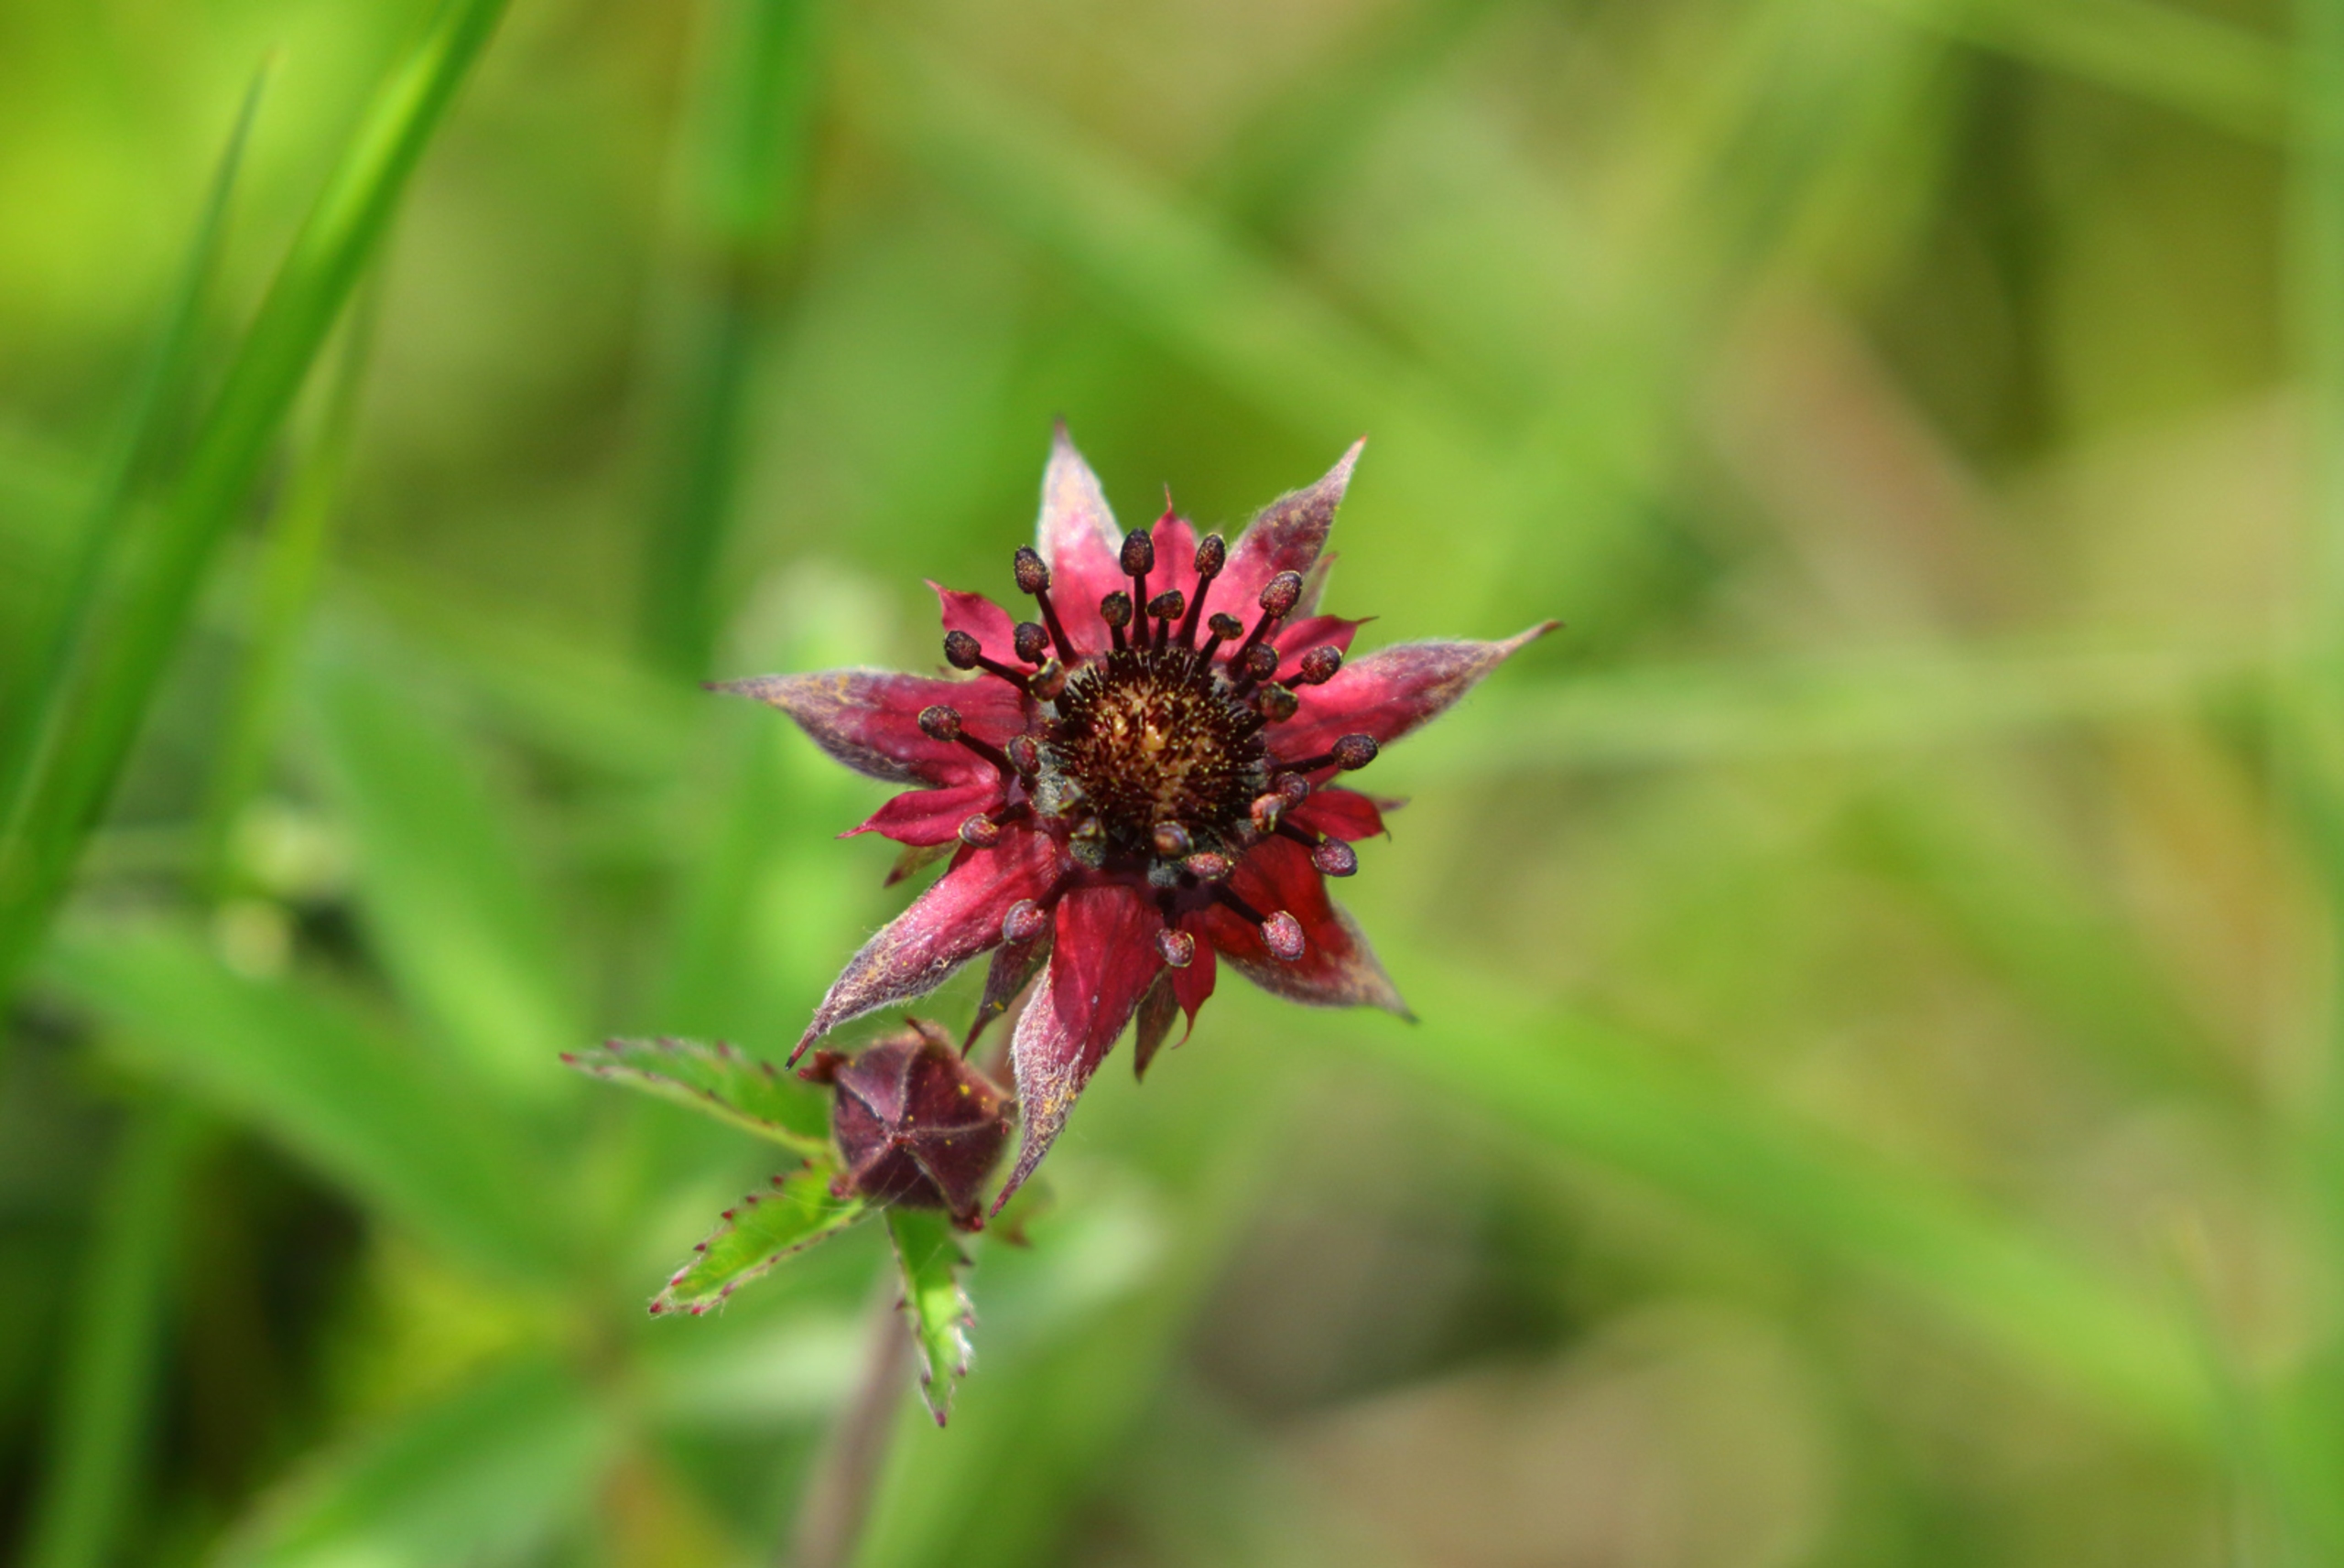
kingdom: Plantae
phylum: Tracheophyta
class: Magnoliopsida
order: Rosales
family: Rosaceae
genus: Comarum
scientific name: Comarum palustre
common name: Kragefod
